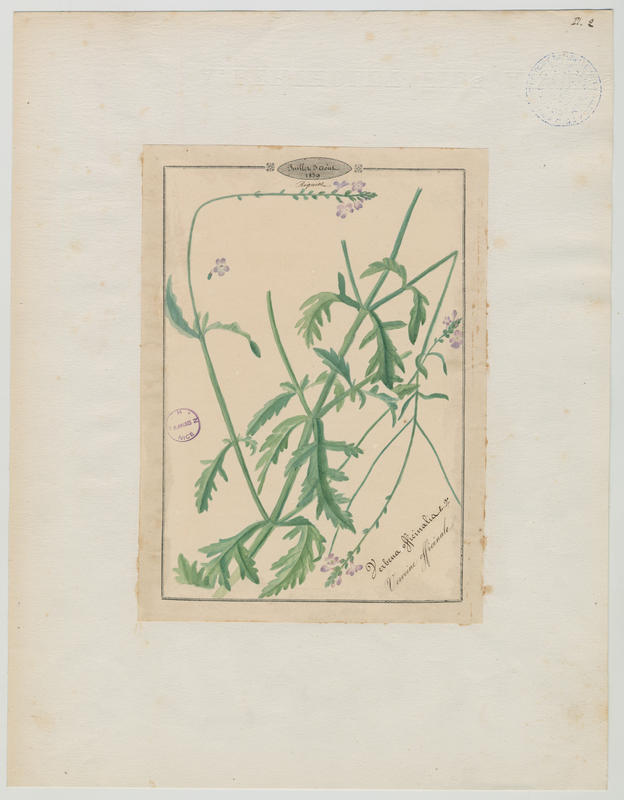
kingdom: Plantae
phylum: Tracheophyta
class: Magnoliopsida
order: Lamiales
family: Verbenaceae
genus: Verbena
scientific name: Verbena officinalis
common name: Vervain
